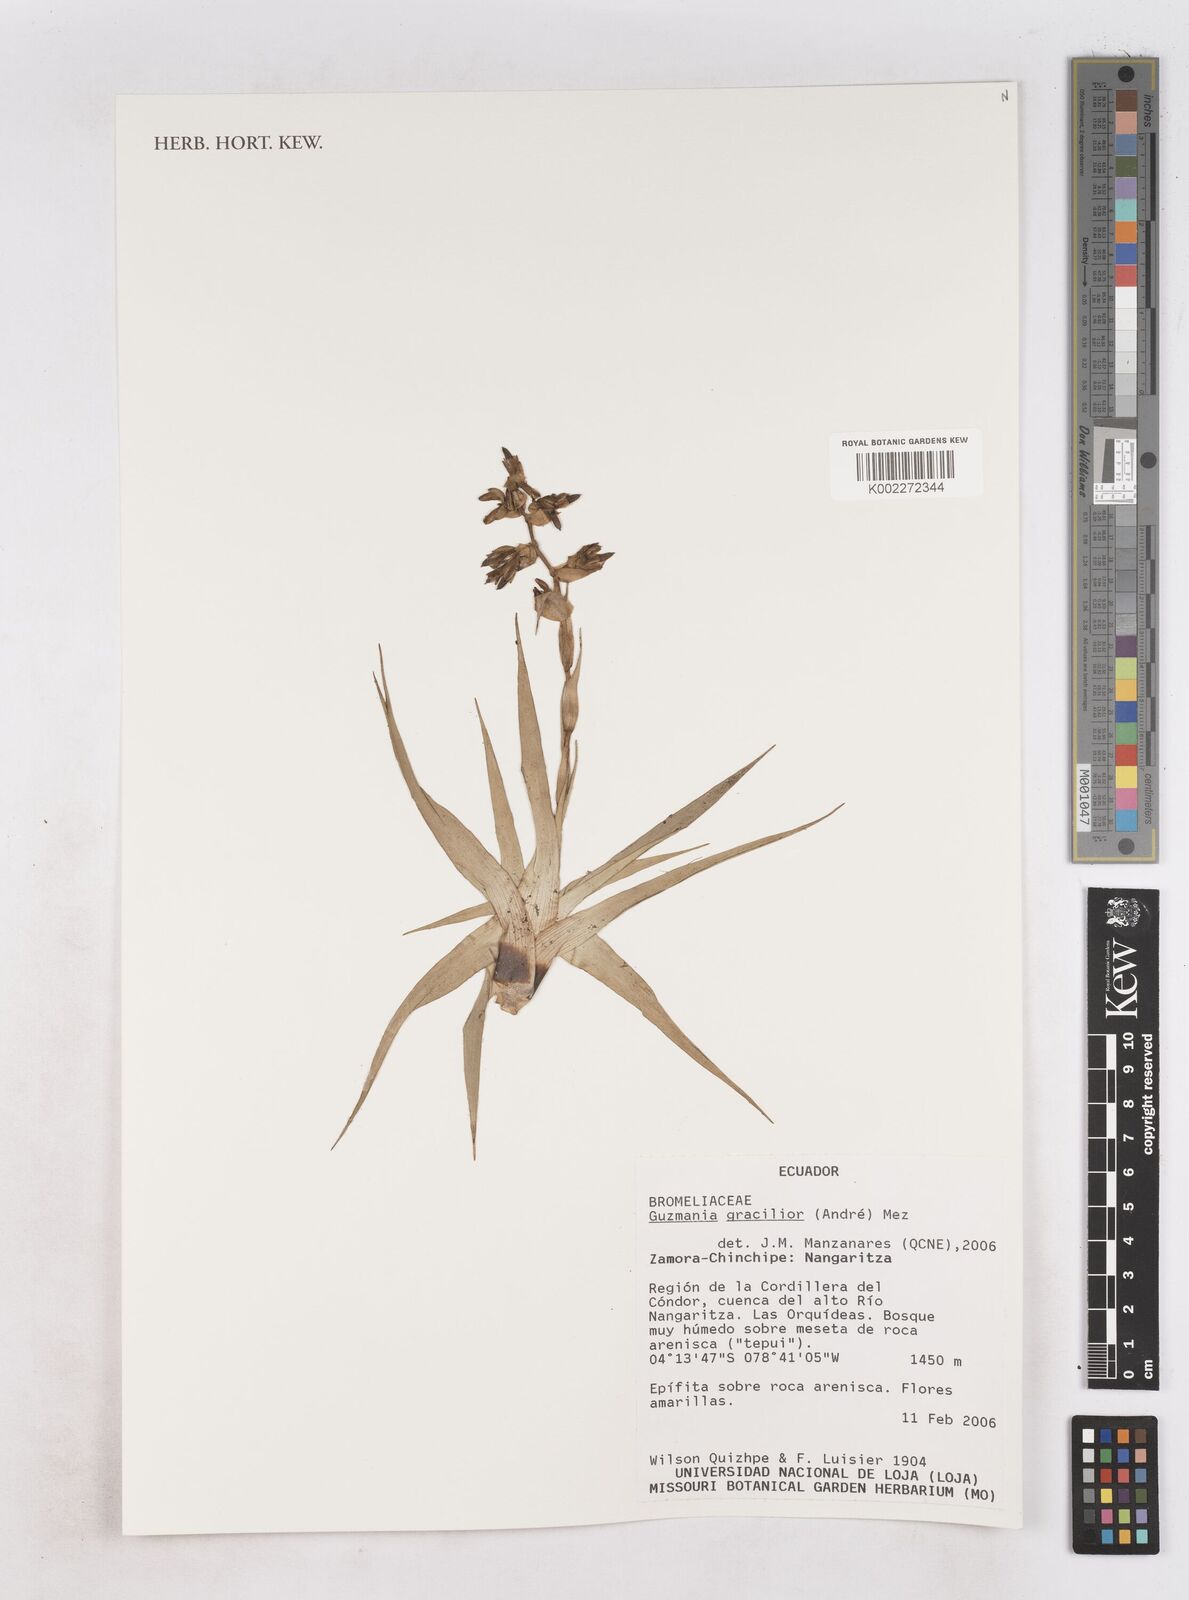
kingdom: Plantae
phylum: Tracheophyta
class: Liliopsida
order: Poales
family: Bromeliaceae
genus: Guzmania
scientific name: Guzmania gracilior
